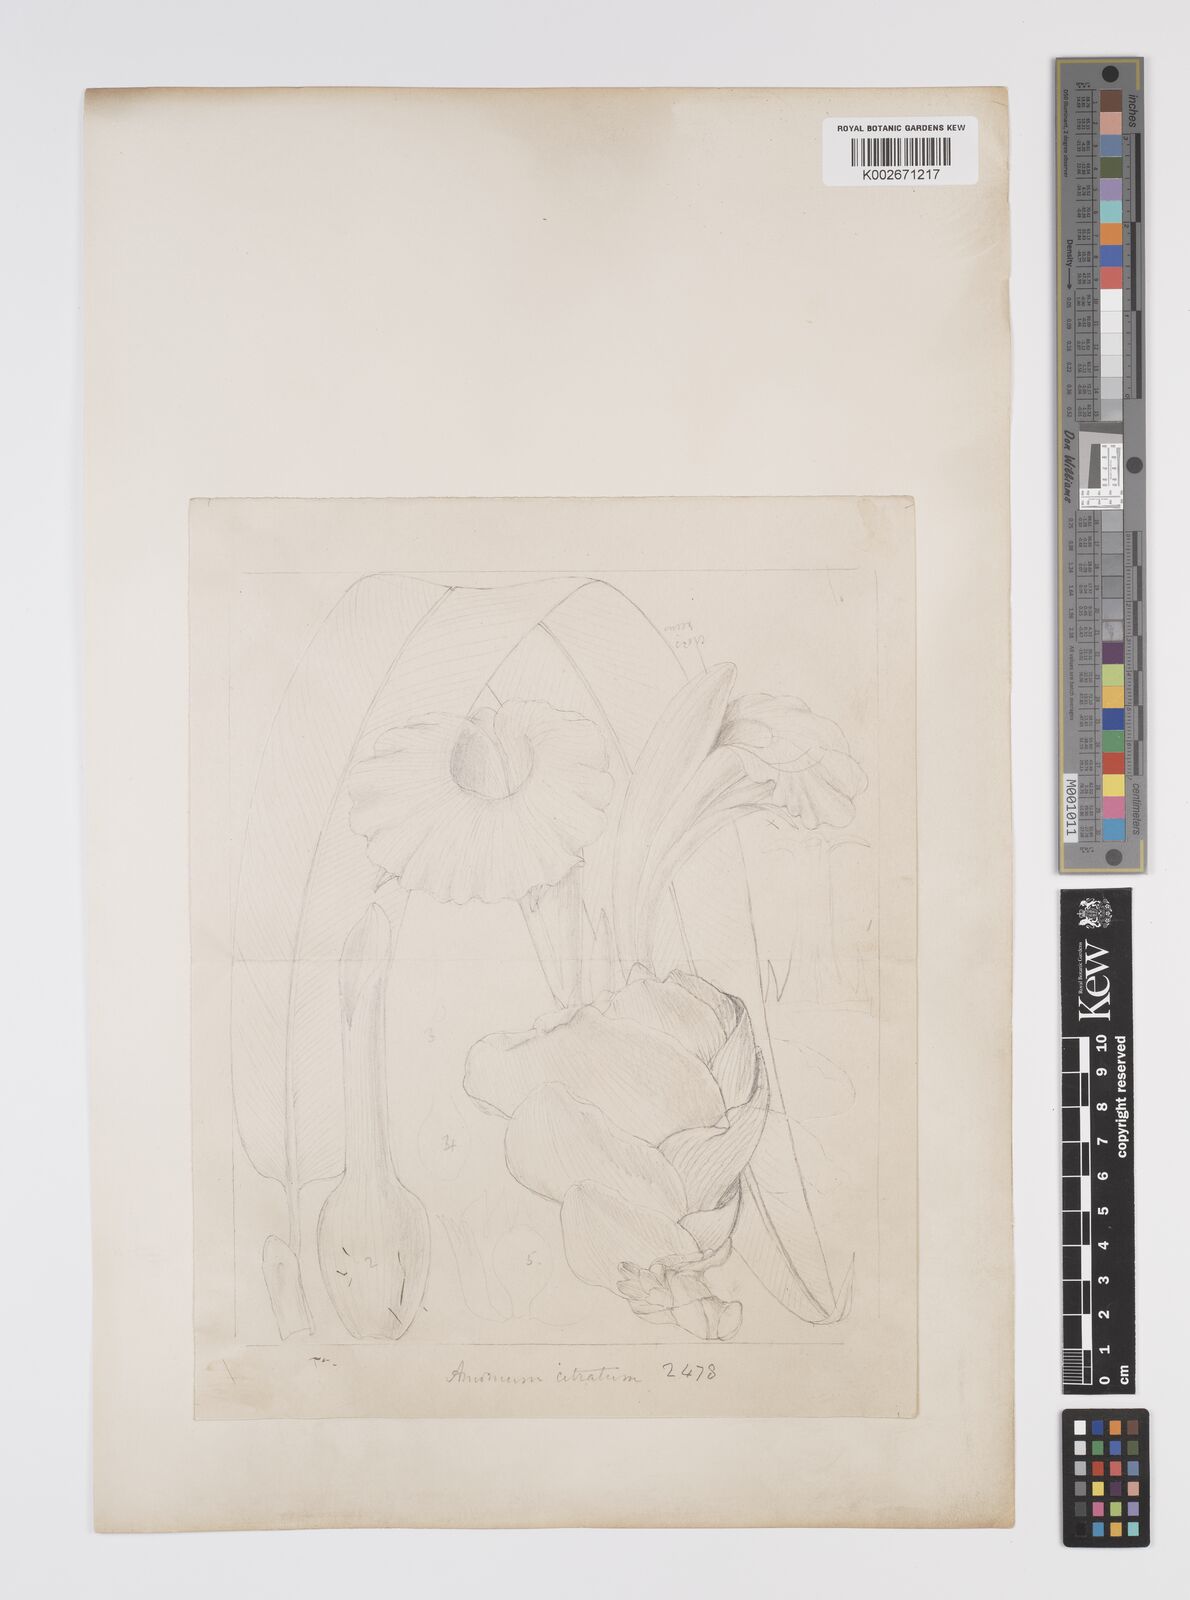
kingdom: Plantae
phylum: Tracheophyta
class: Liliopsida
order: Zingiberales
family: Zingiberaceae
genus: Aframomum
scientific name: Aframomum citratum
